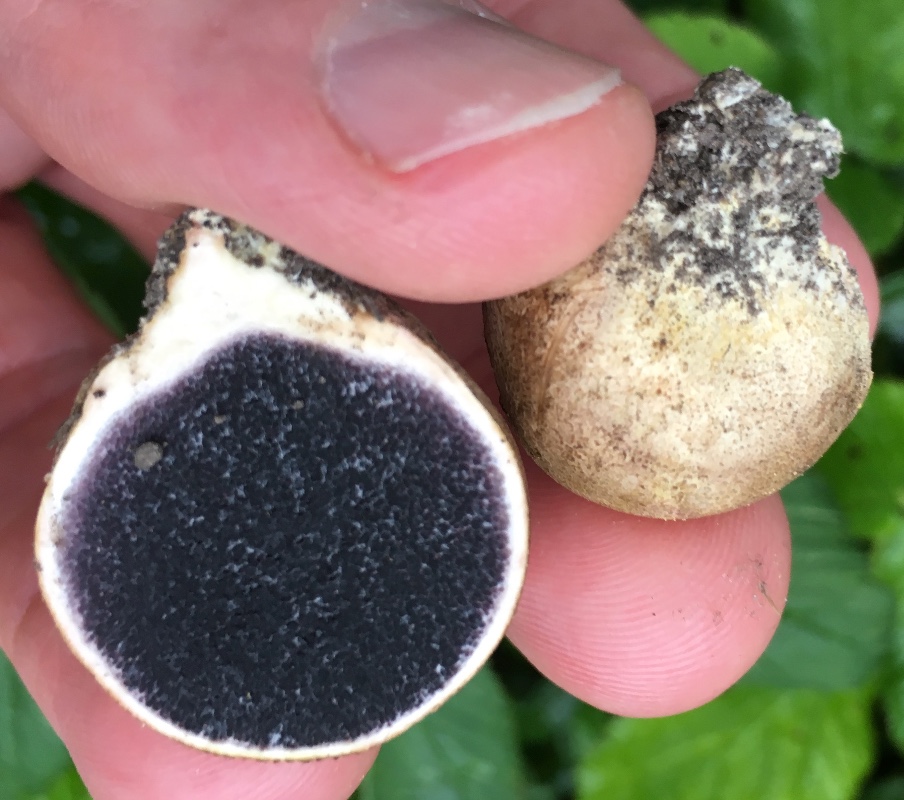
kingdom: Fungi
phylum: Basidiomycota
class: Agaricomycetes
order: Boletales
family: Sclerodermataceae
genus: Scleroderma
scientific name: Scleroderma bovista
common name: bovist-bruskbold
